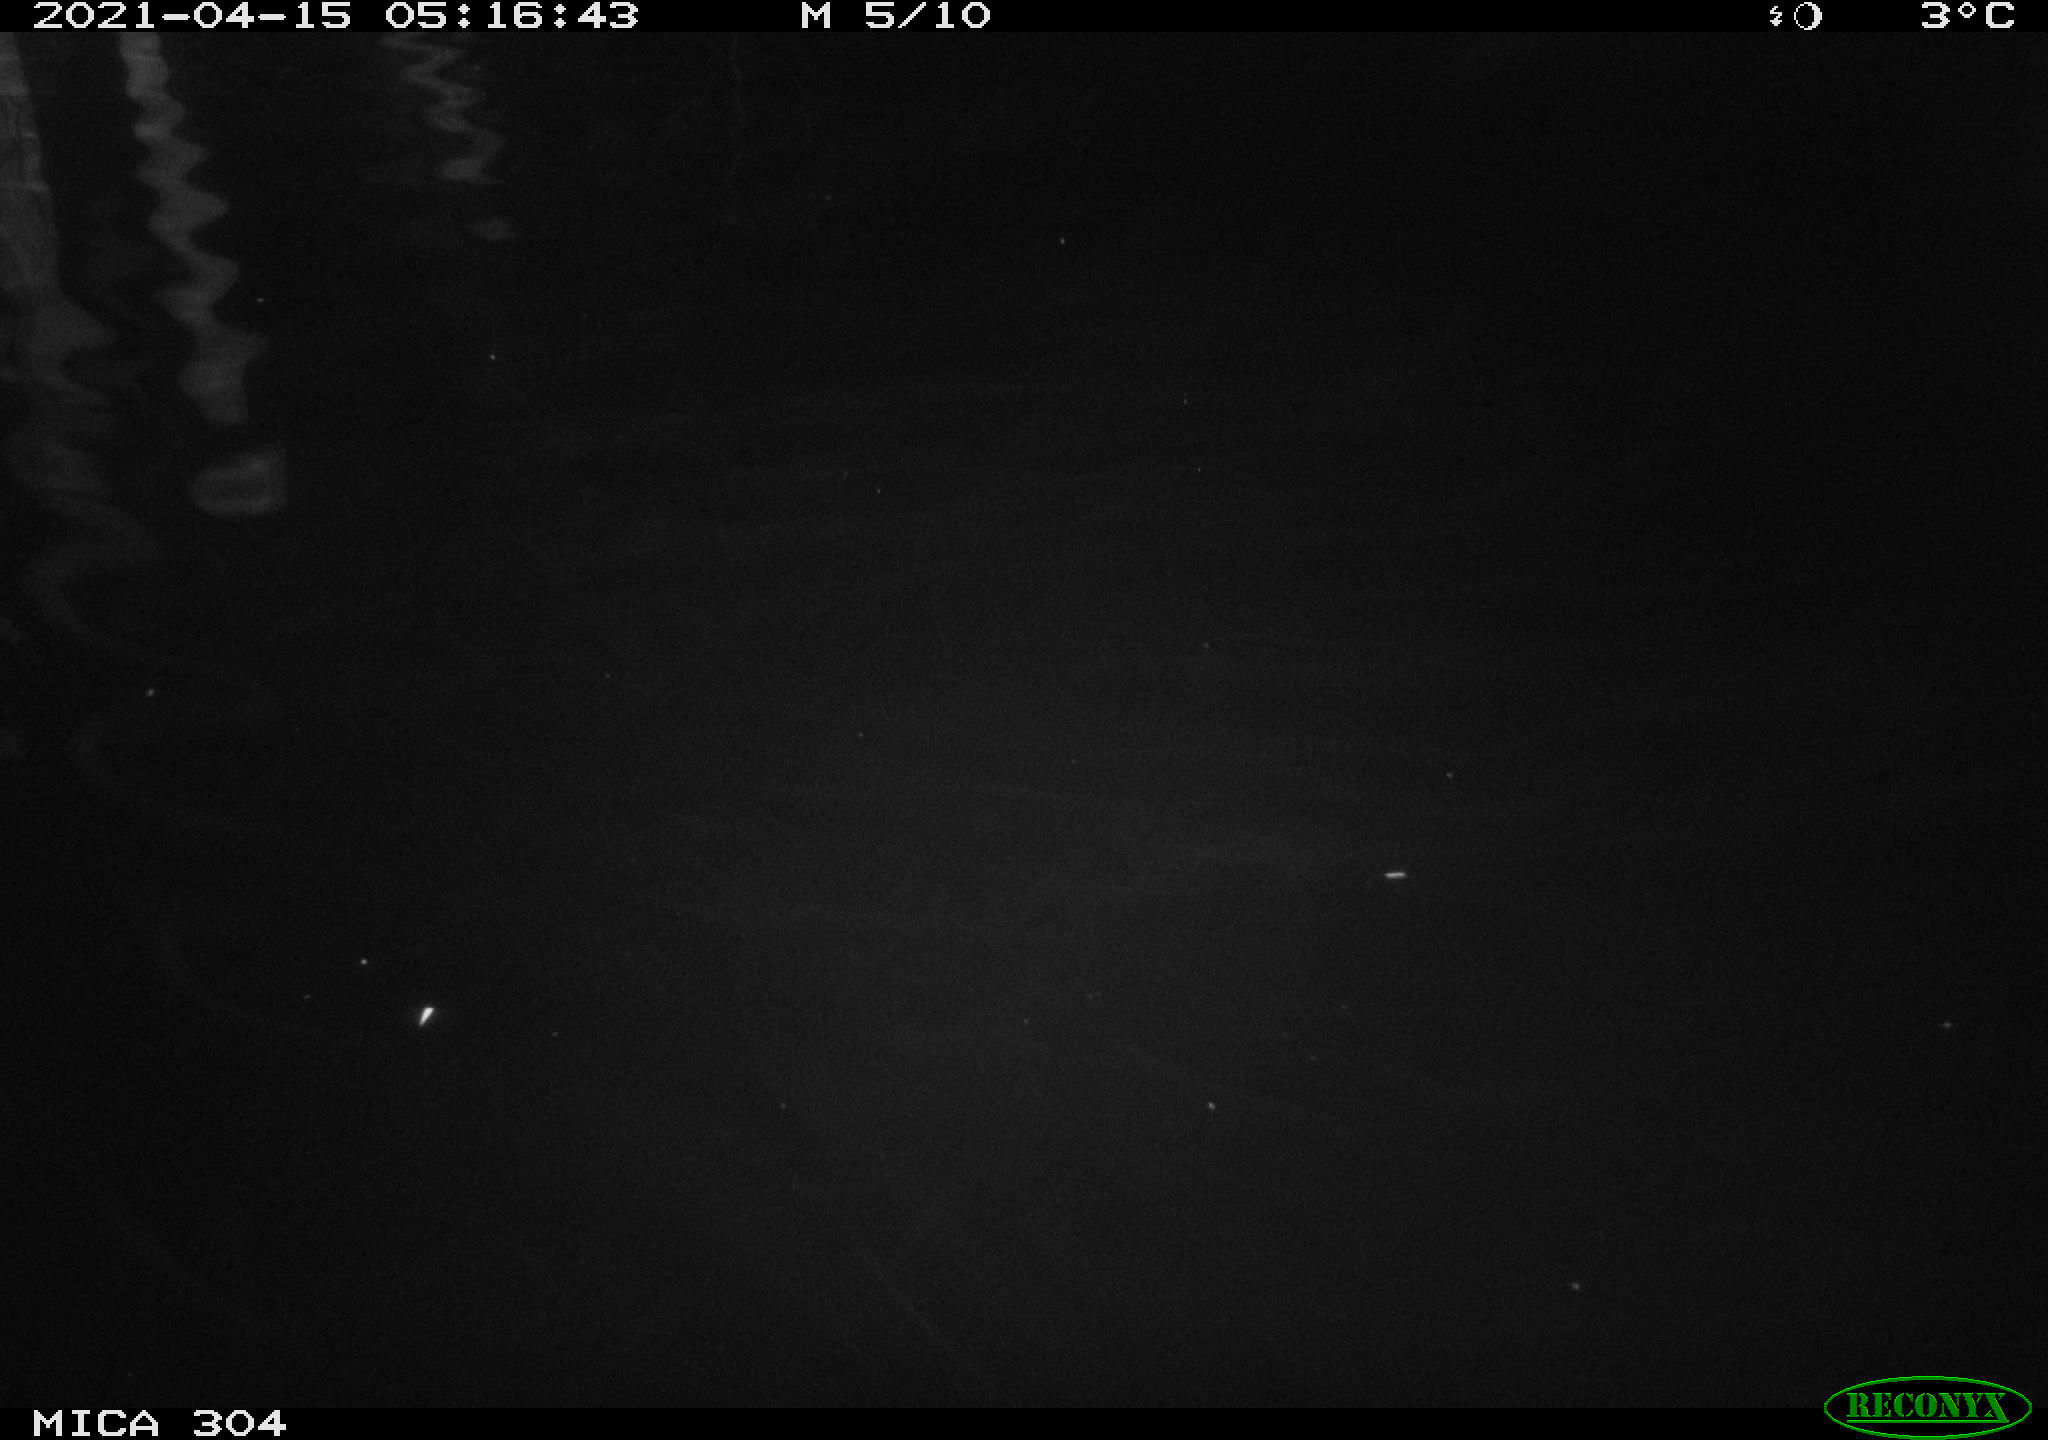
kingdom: Animalia
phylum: Chordata
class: Aves
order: Anseriformes
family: Anatidae
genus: Anas
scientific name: Anas
